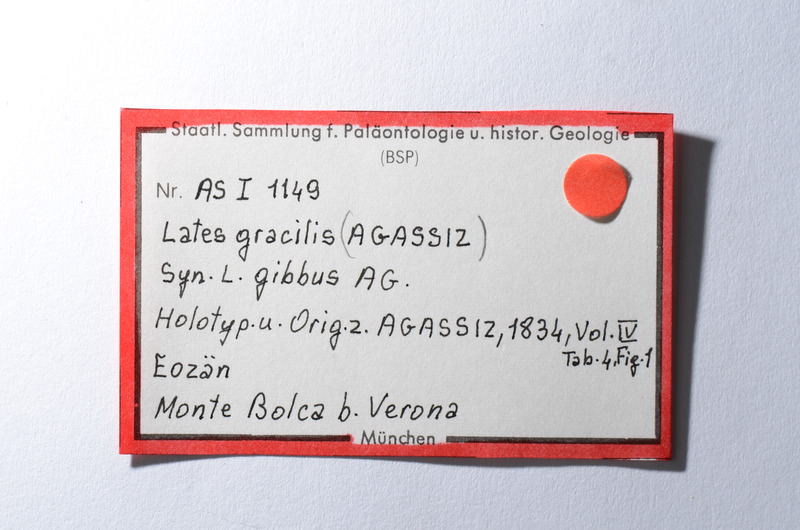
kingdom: Animalia
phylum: Chordata
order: Perciformes
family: Latidae
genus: Lates
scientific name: Lates gracilis
